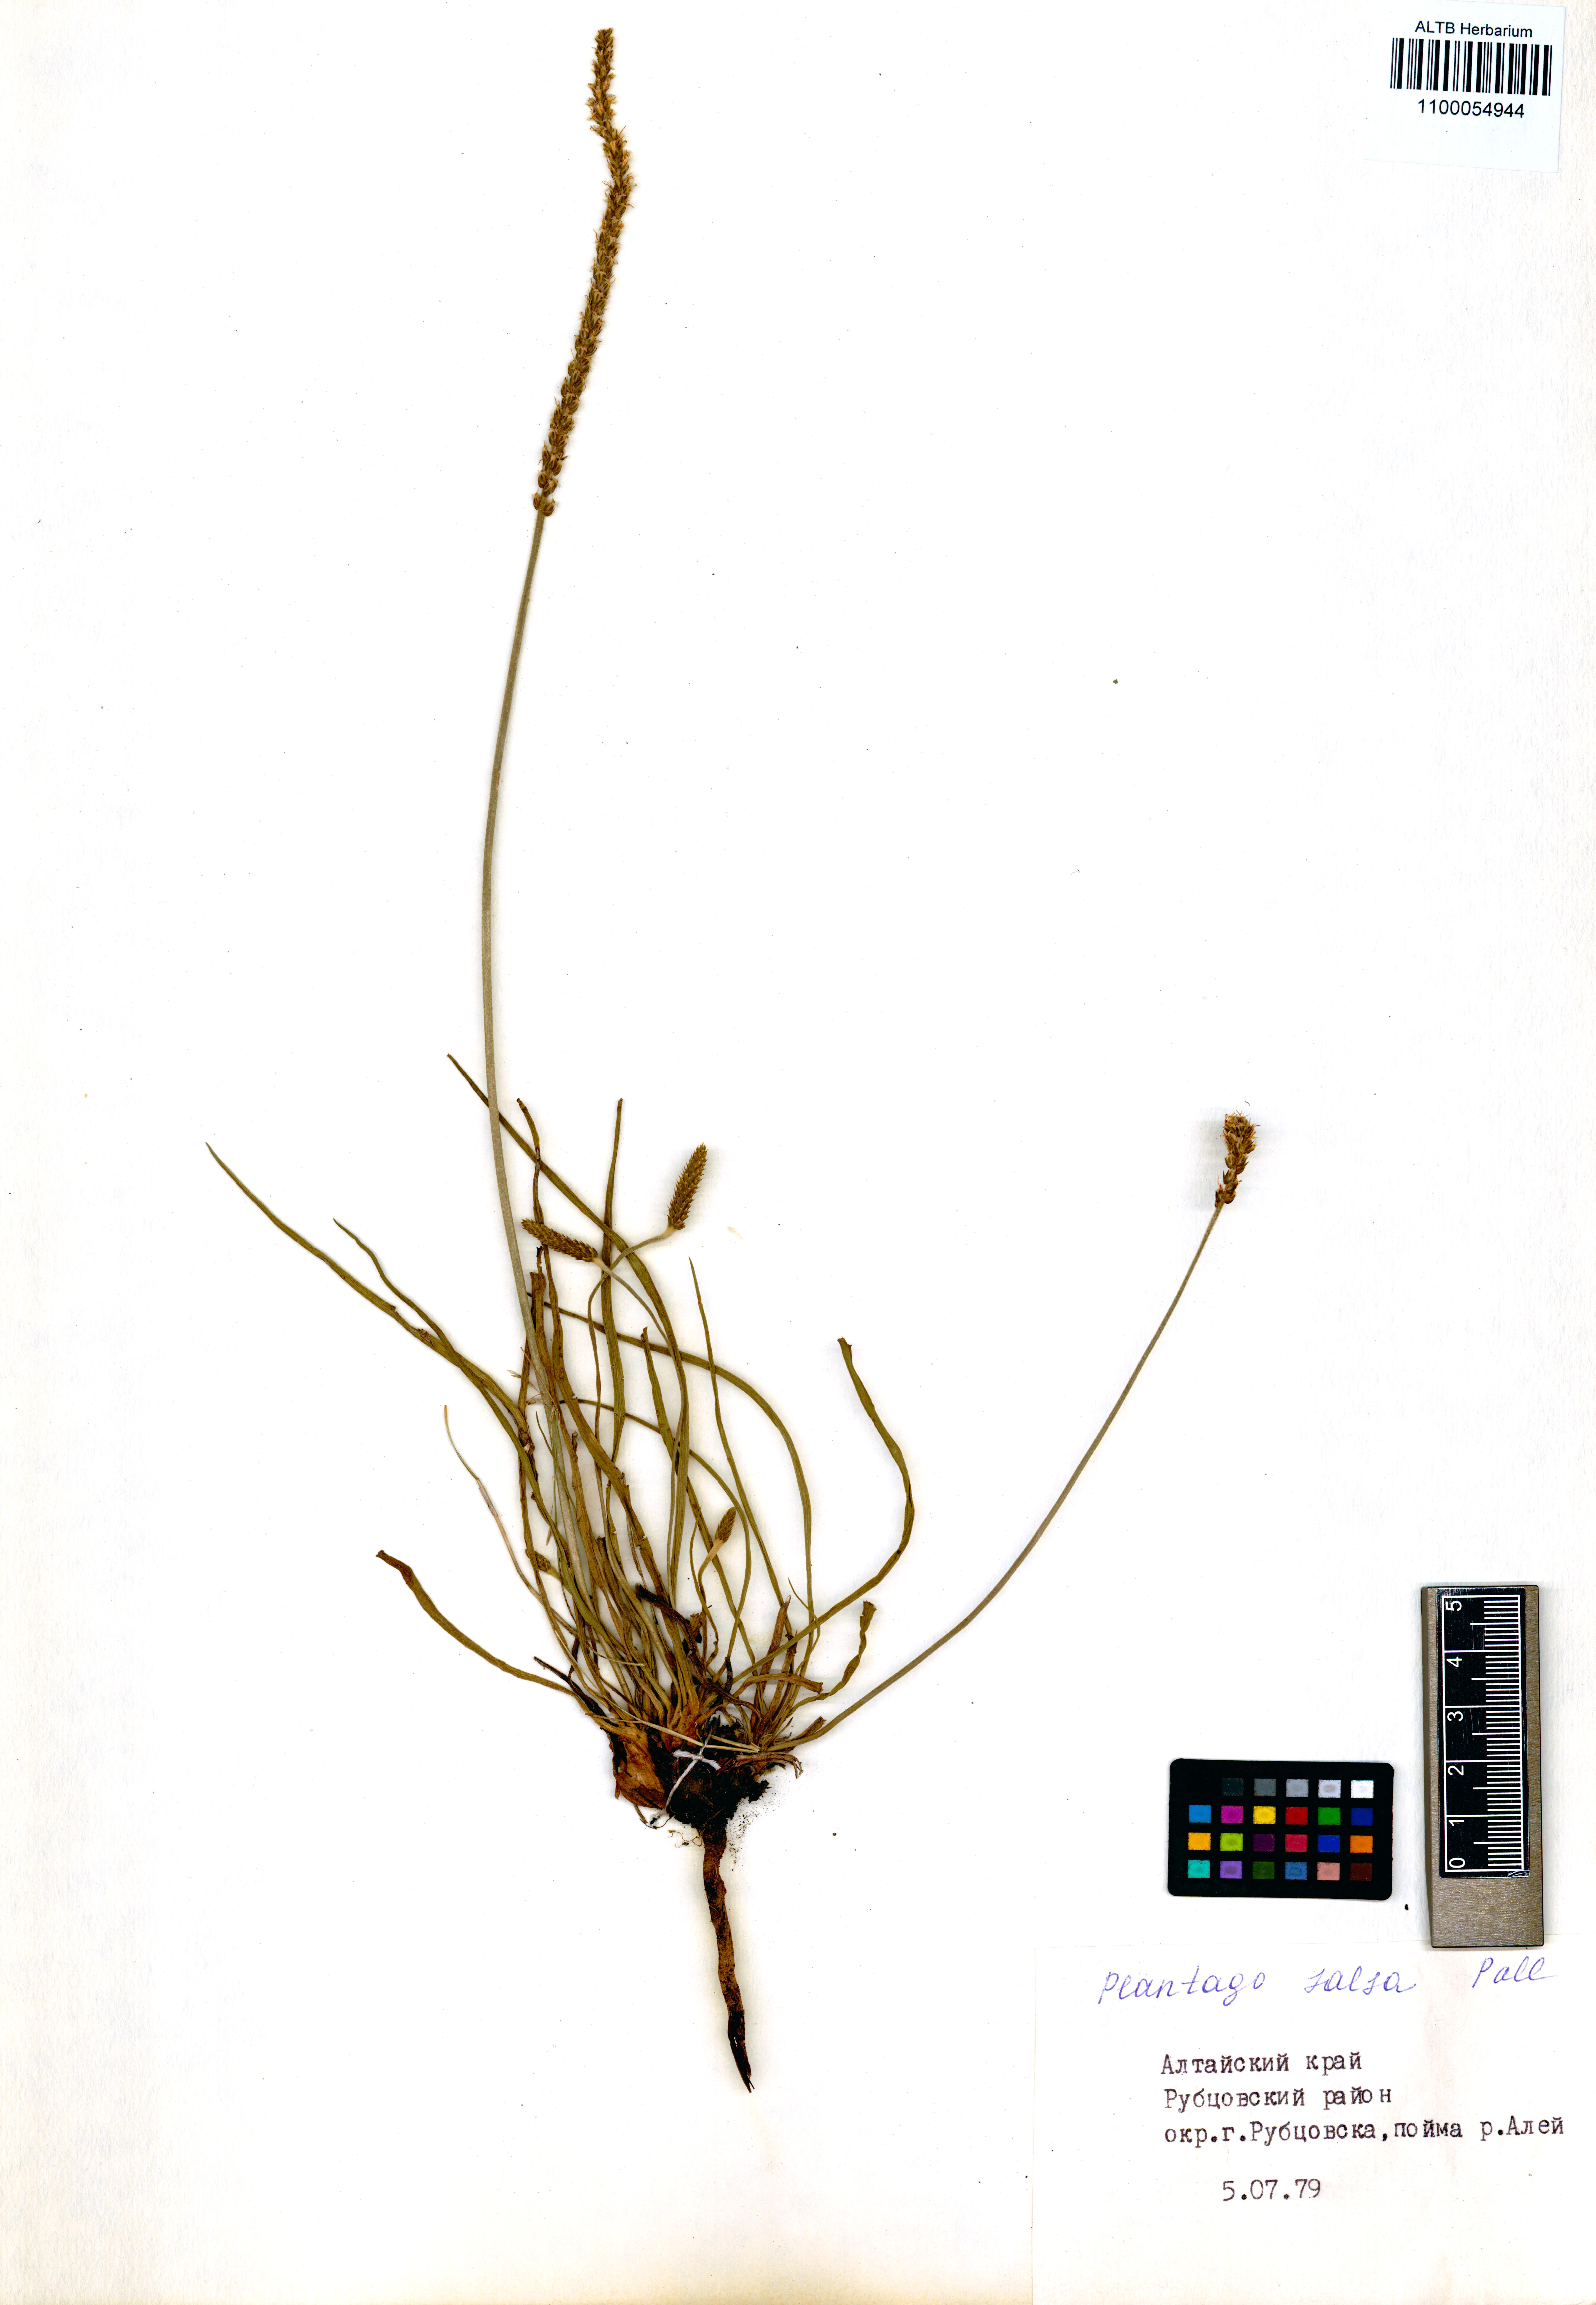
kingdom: Plantae
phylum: Tracheophyta
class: Magnoliopsida
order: Lamiales
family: Plantaginaceae
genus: Plantago
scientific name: Plantago salsa
